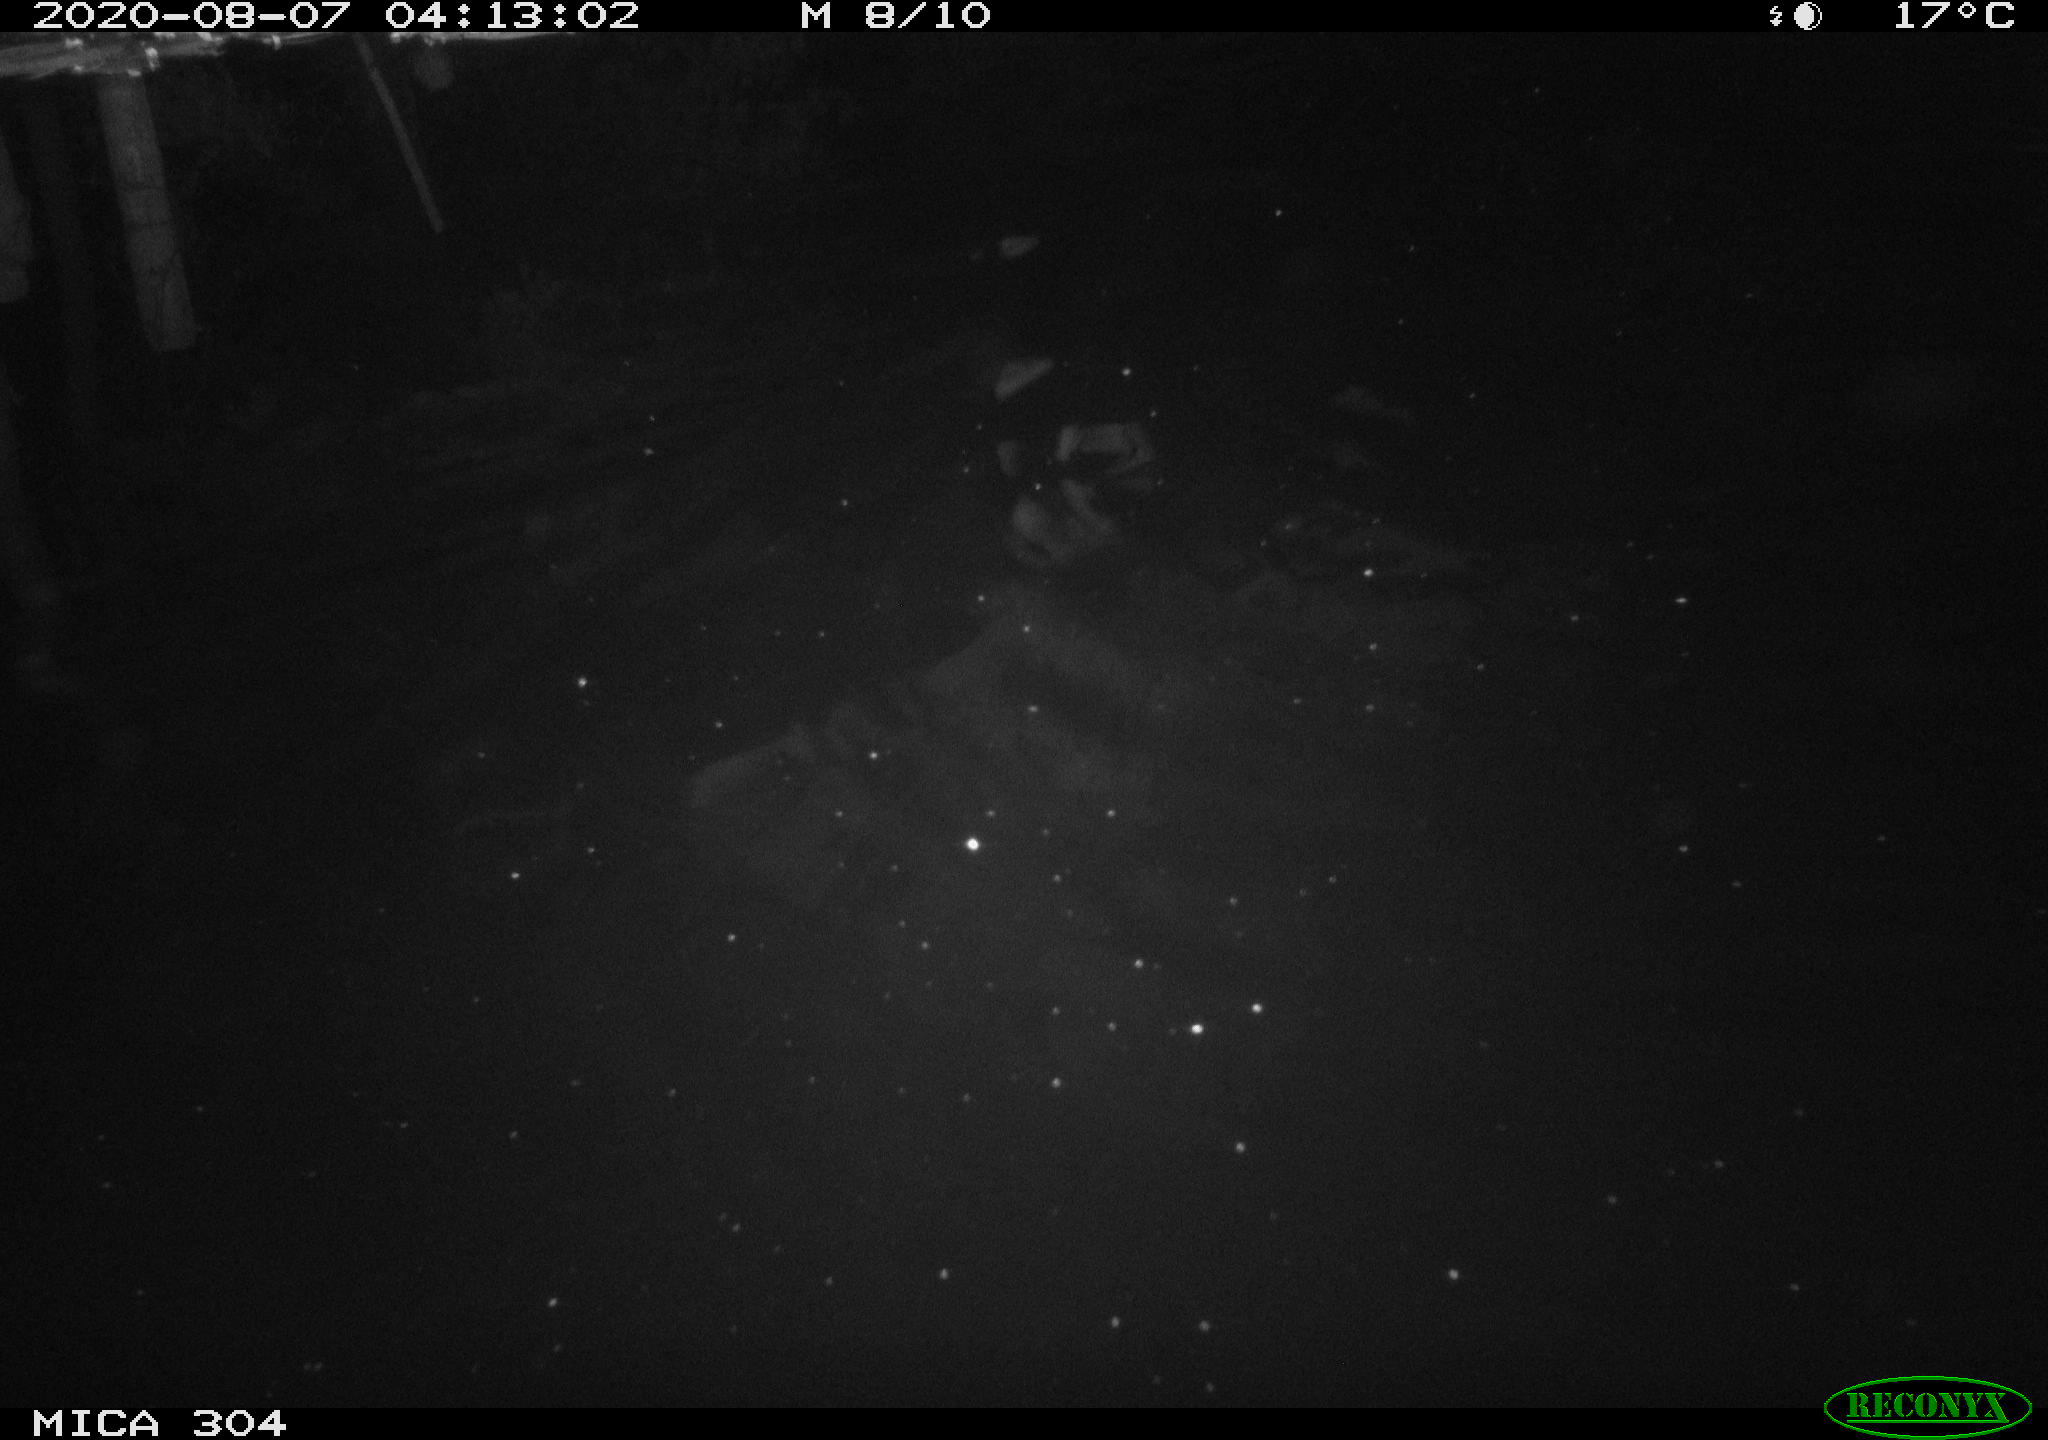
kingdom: Animalia
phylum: Chordata
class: Mammalia
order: Rodentia
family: Cricetidae
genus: Ondatra
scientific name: Ondatra zibethicus
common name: Muskrat
